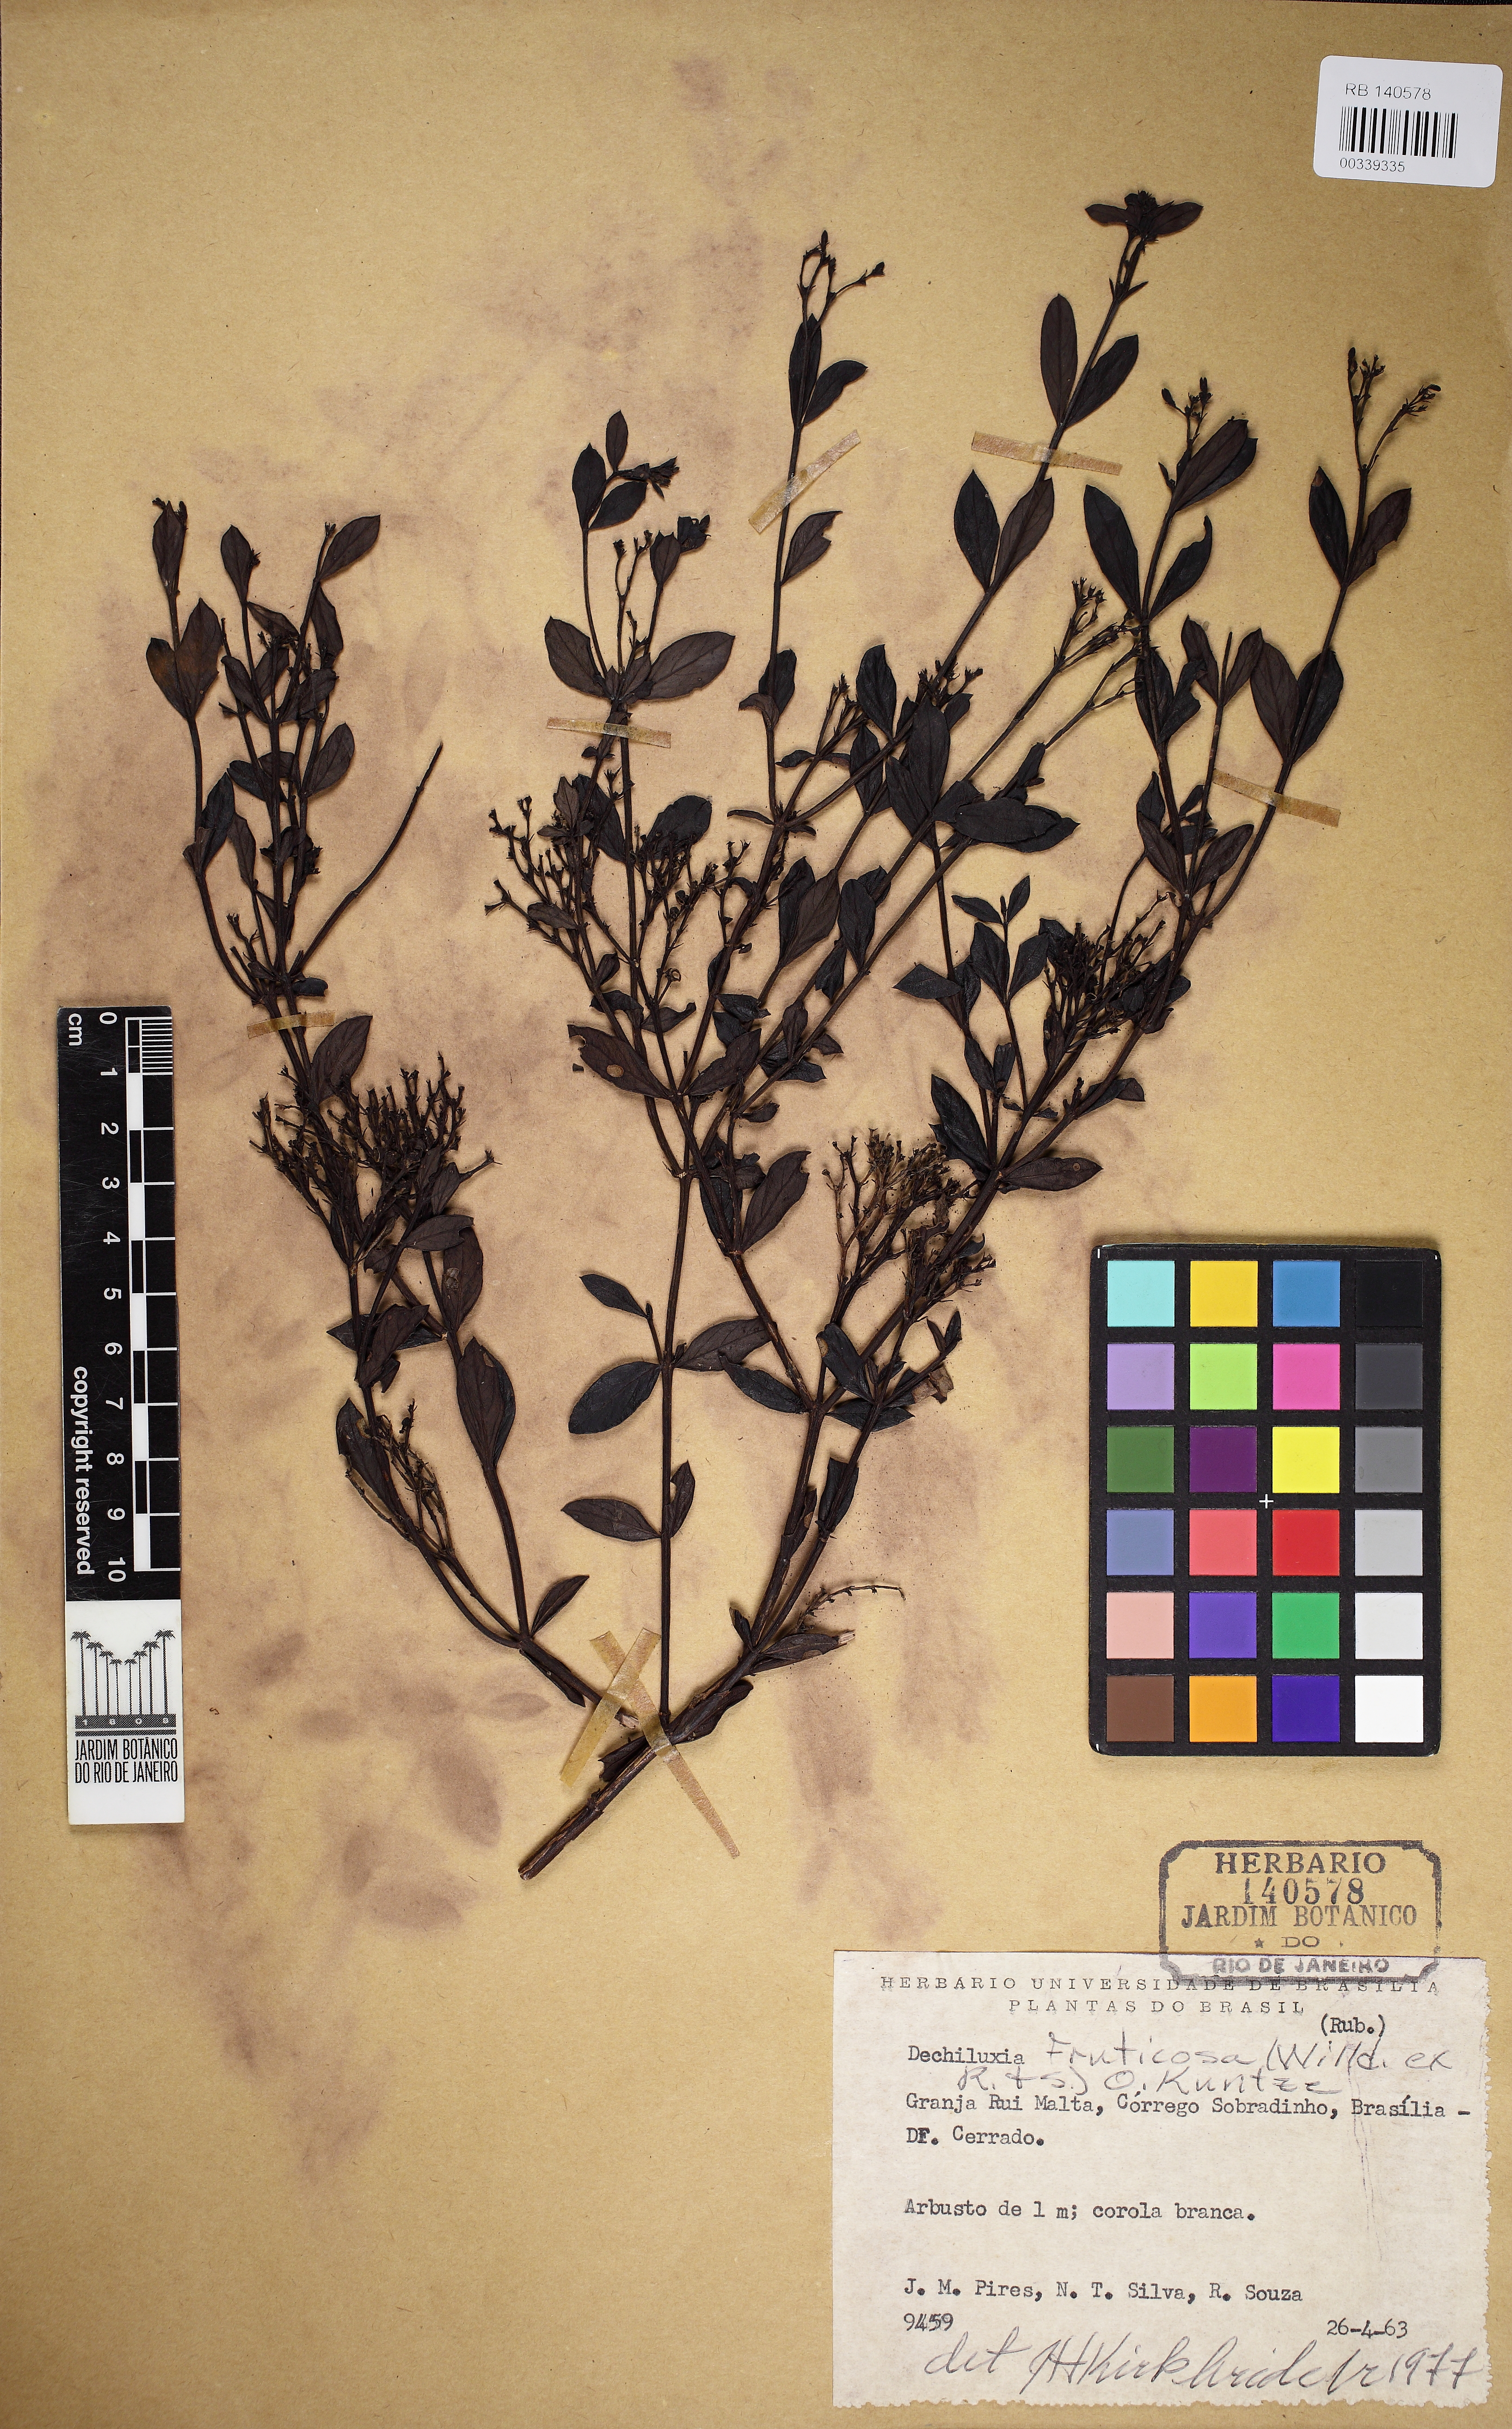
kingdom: Plantae
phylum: Tracheophyta
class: Magnoliopsida
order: Gentianales
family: Rubiaceae
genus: Declieuxia
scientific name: Declieuxia fruticosa
